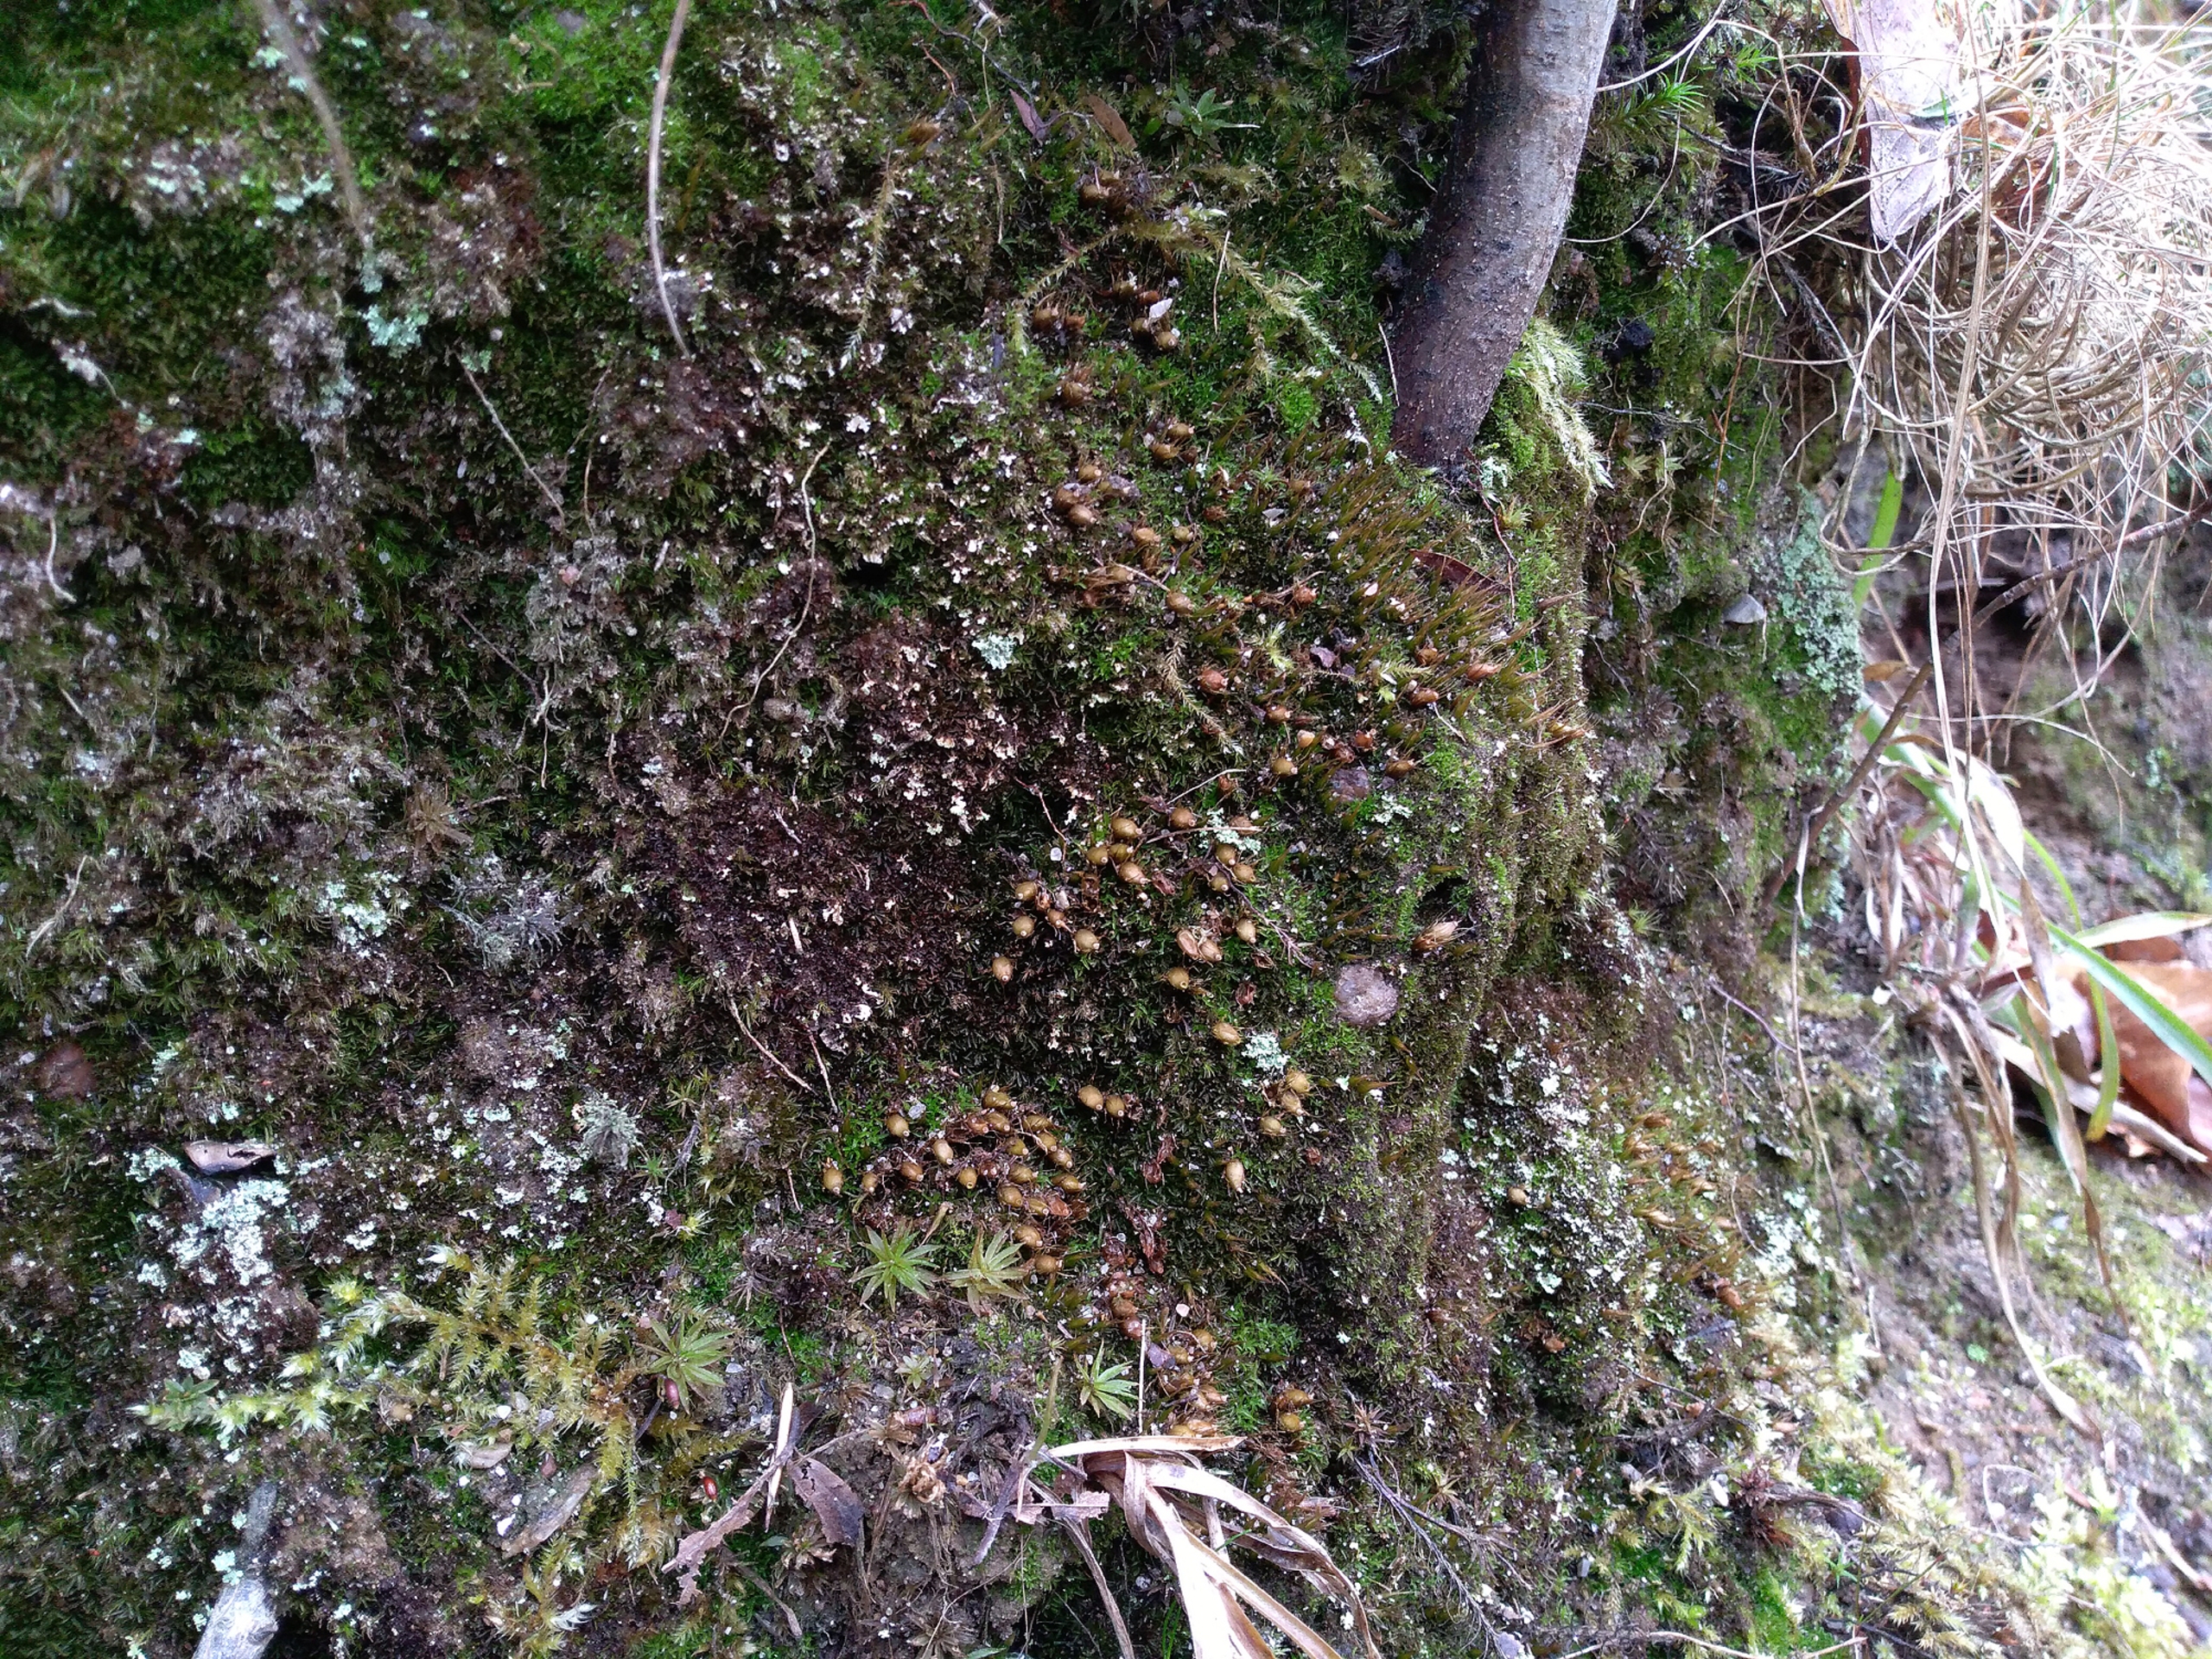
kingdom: Plantae
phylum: Bryophyta
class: Bryopsida
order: Diphysciales
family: Diphysciaceae
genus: Diphyscium
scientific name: Diphyscium foliosum
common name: Stilkløs sækkapsel
